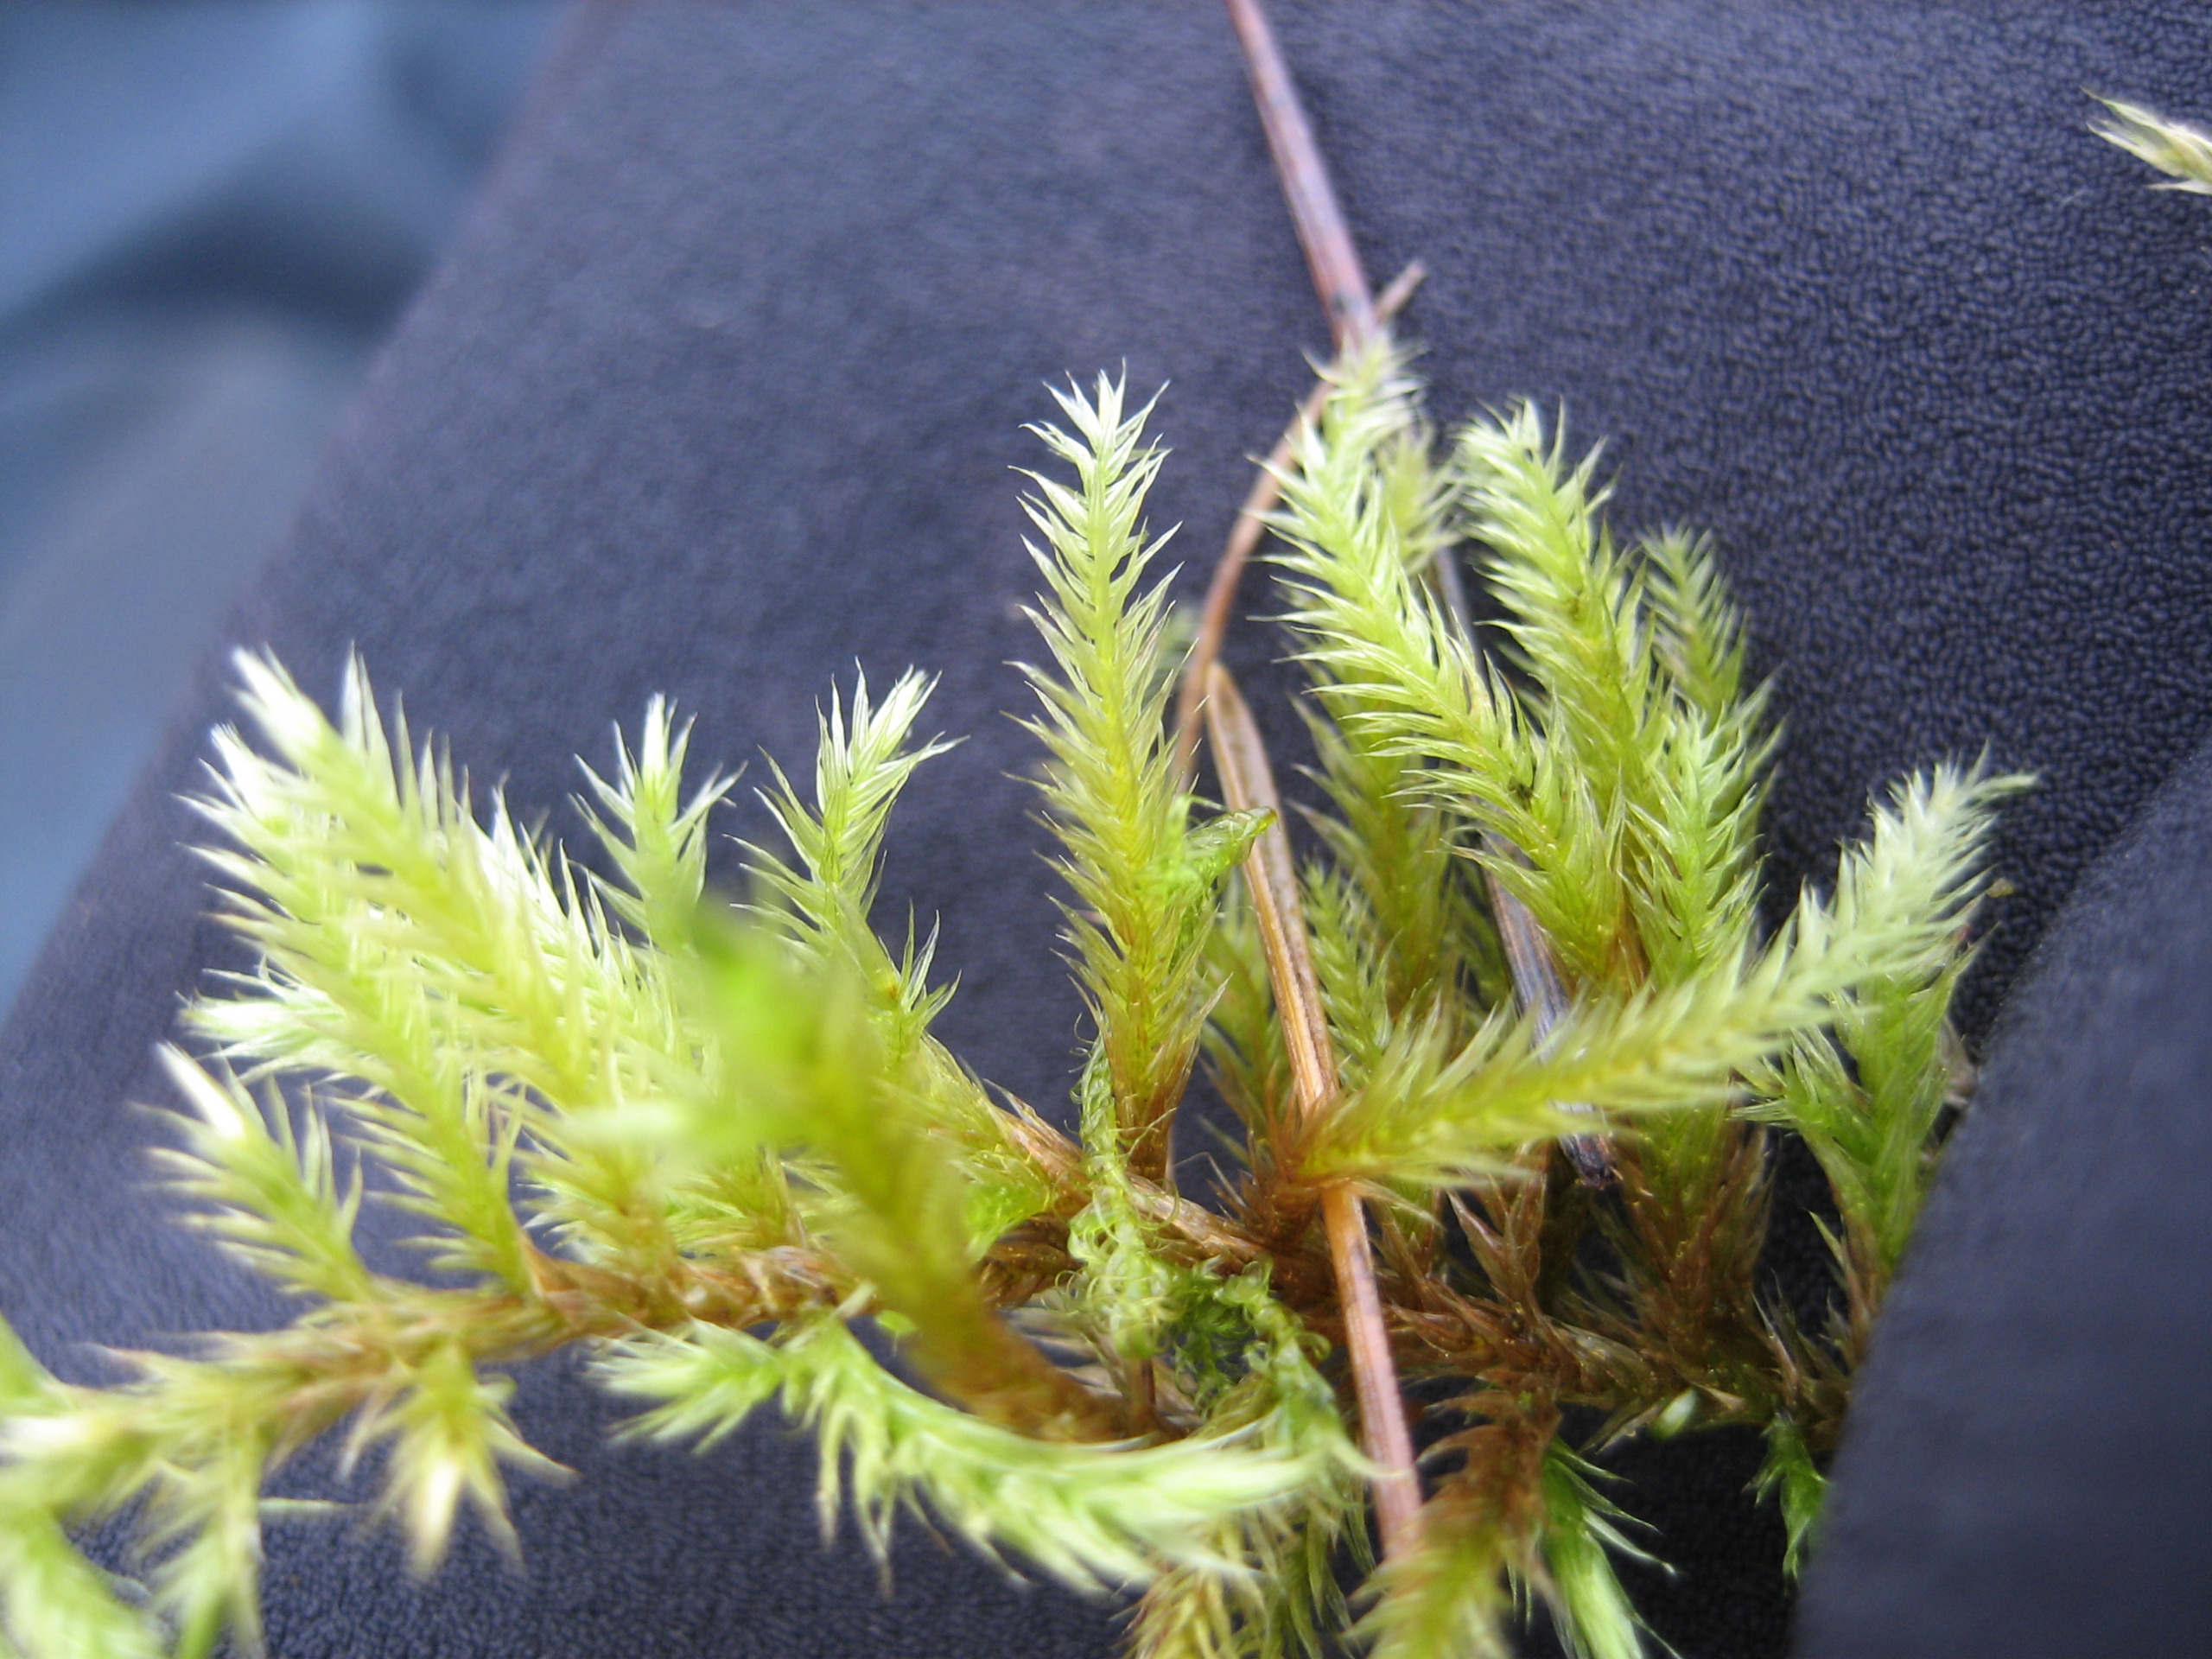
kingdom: Plantae
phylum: Bryophyta
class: Bryopsida
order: Hypnales
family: Brachytheciaceae
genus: Homalothecium
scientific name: Homalothecium lutescens
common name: Gul krumkapsel
